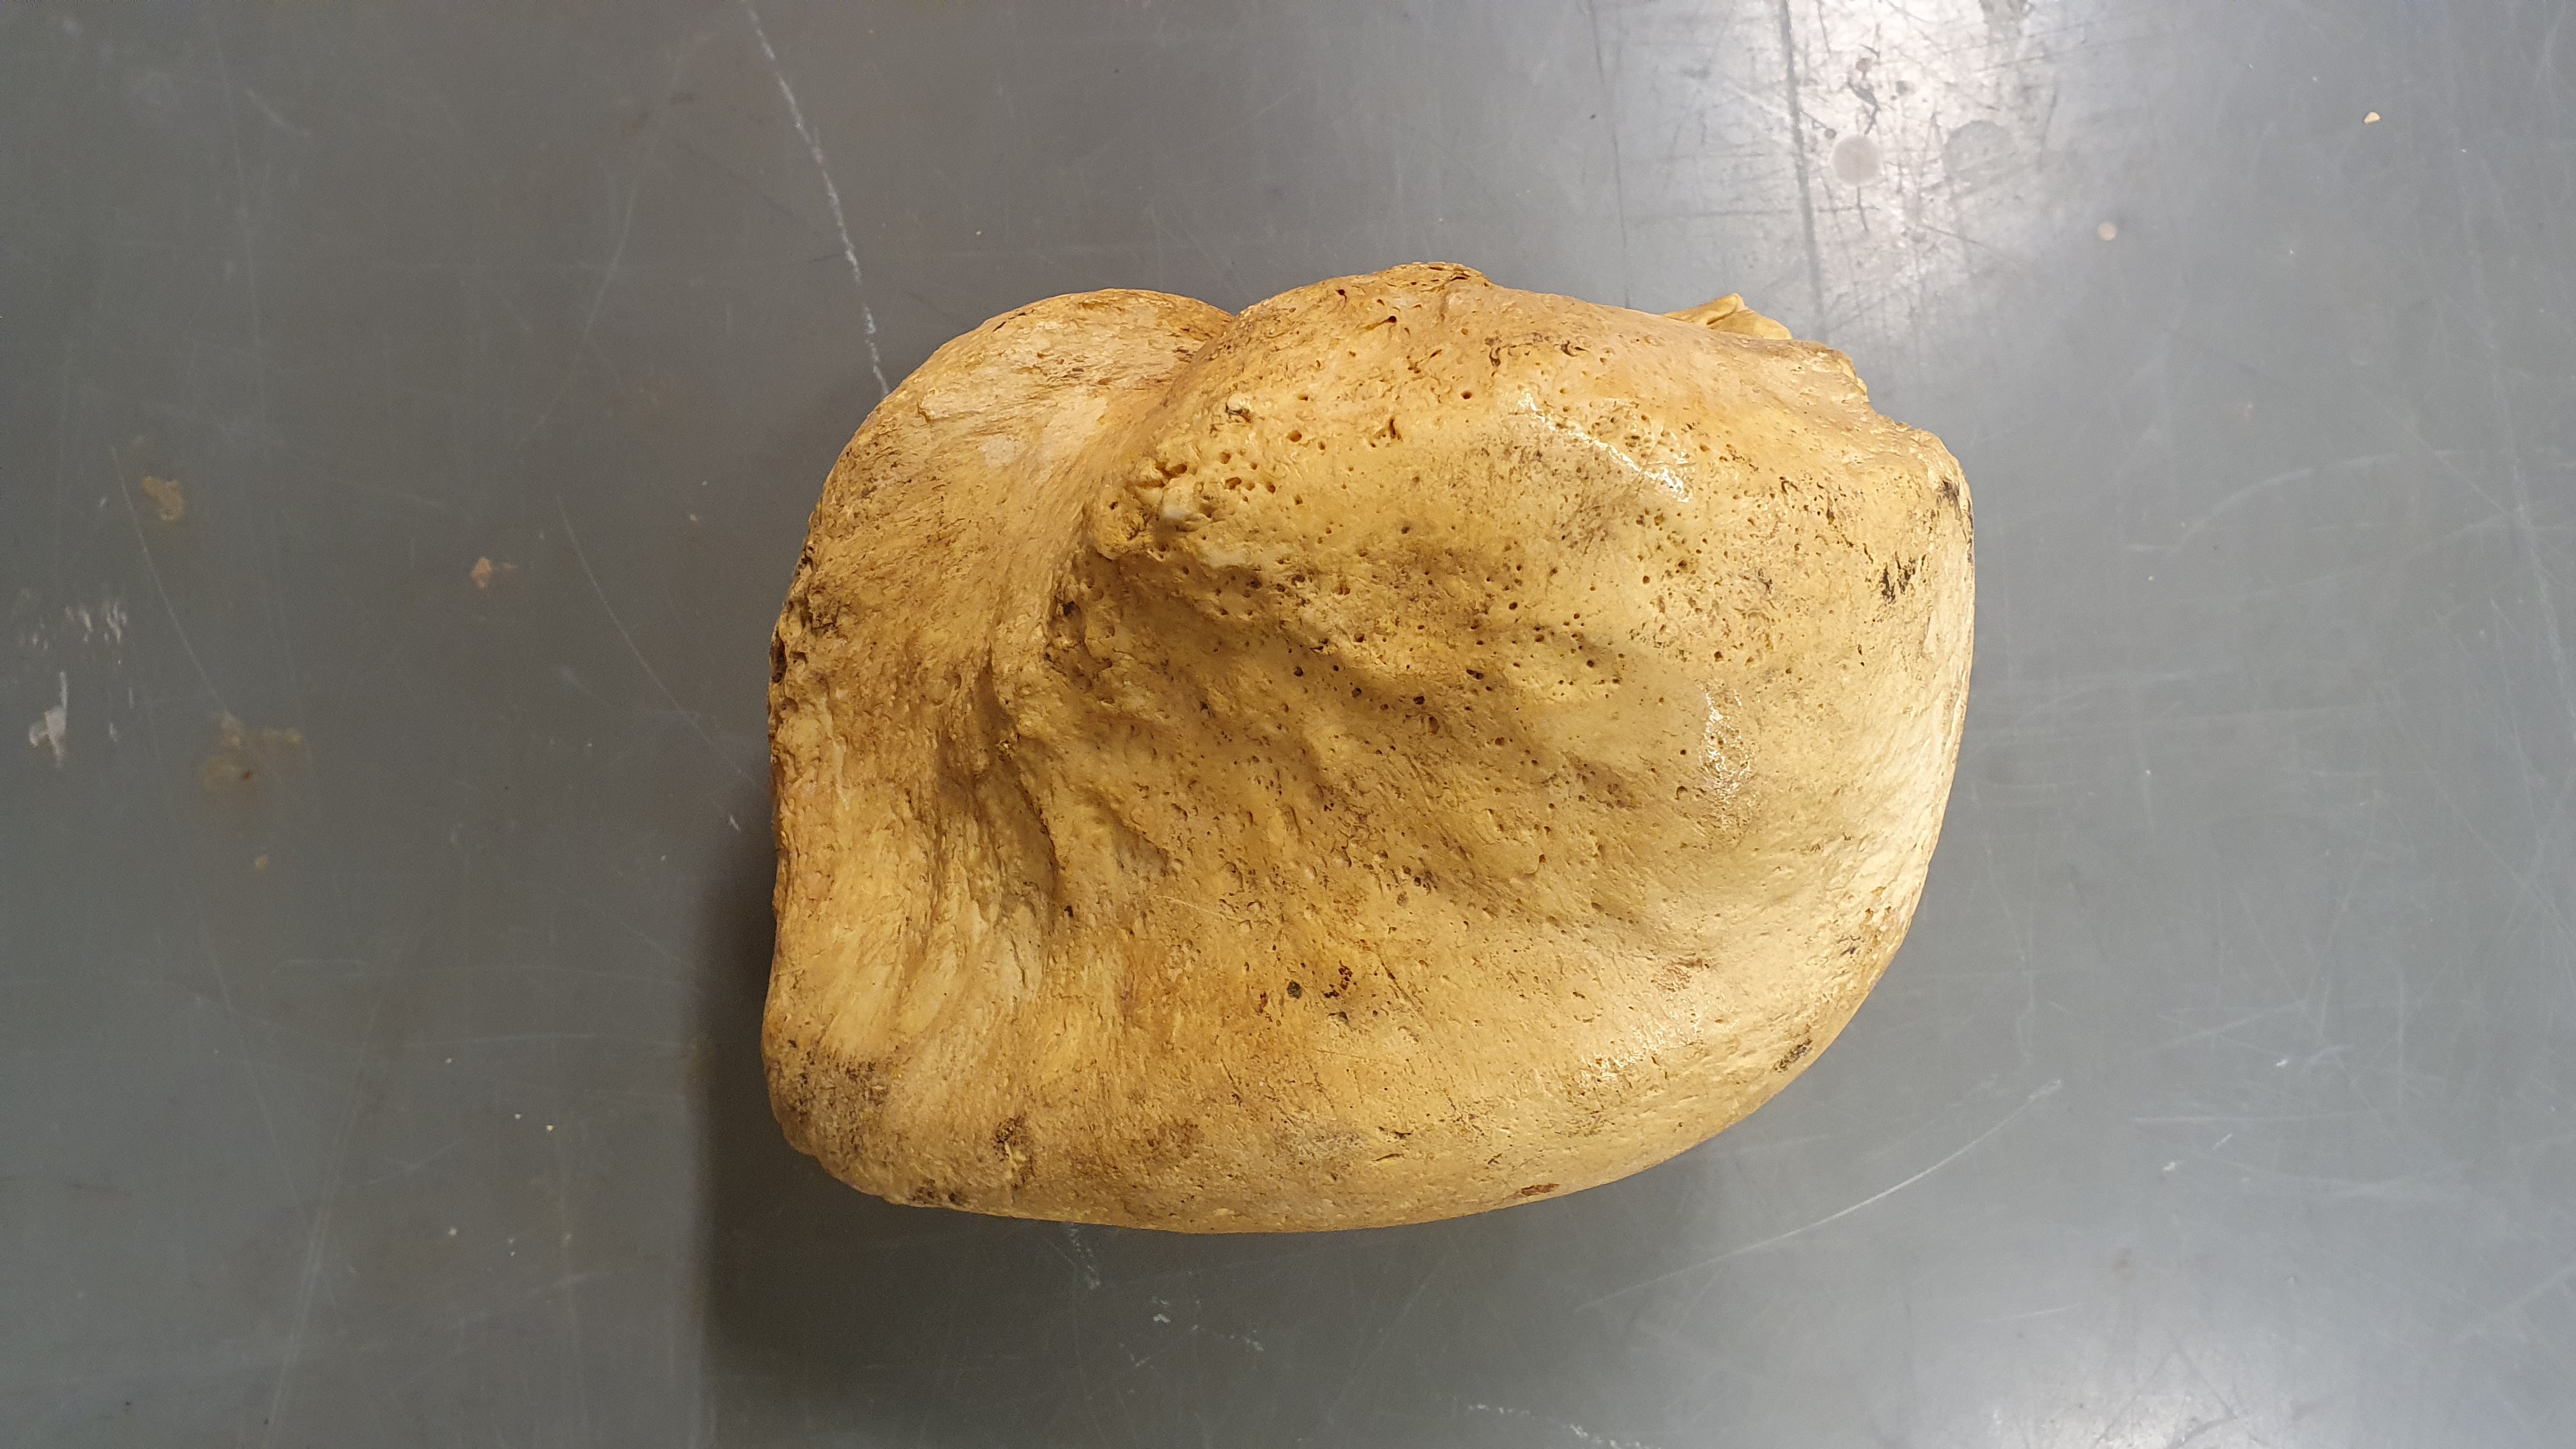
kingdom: Animalia
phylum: Chordata
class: Mammalia
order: Cetacea
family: Balaenidae
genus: Balaena
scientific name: Balaena mysticetus
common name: Bowhead whale
